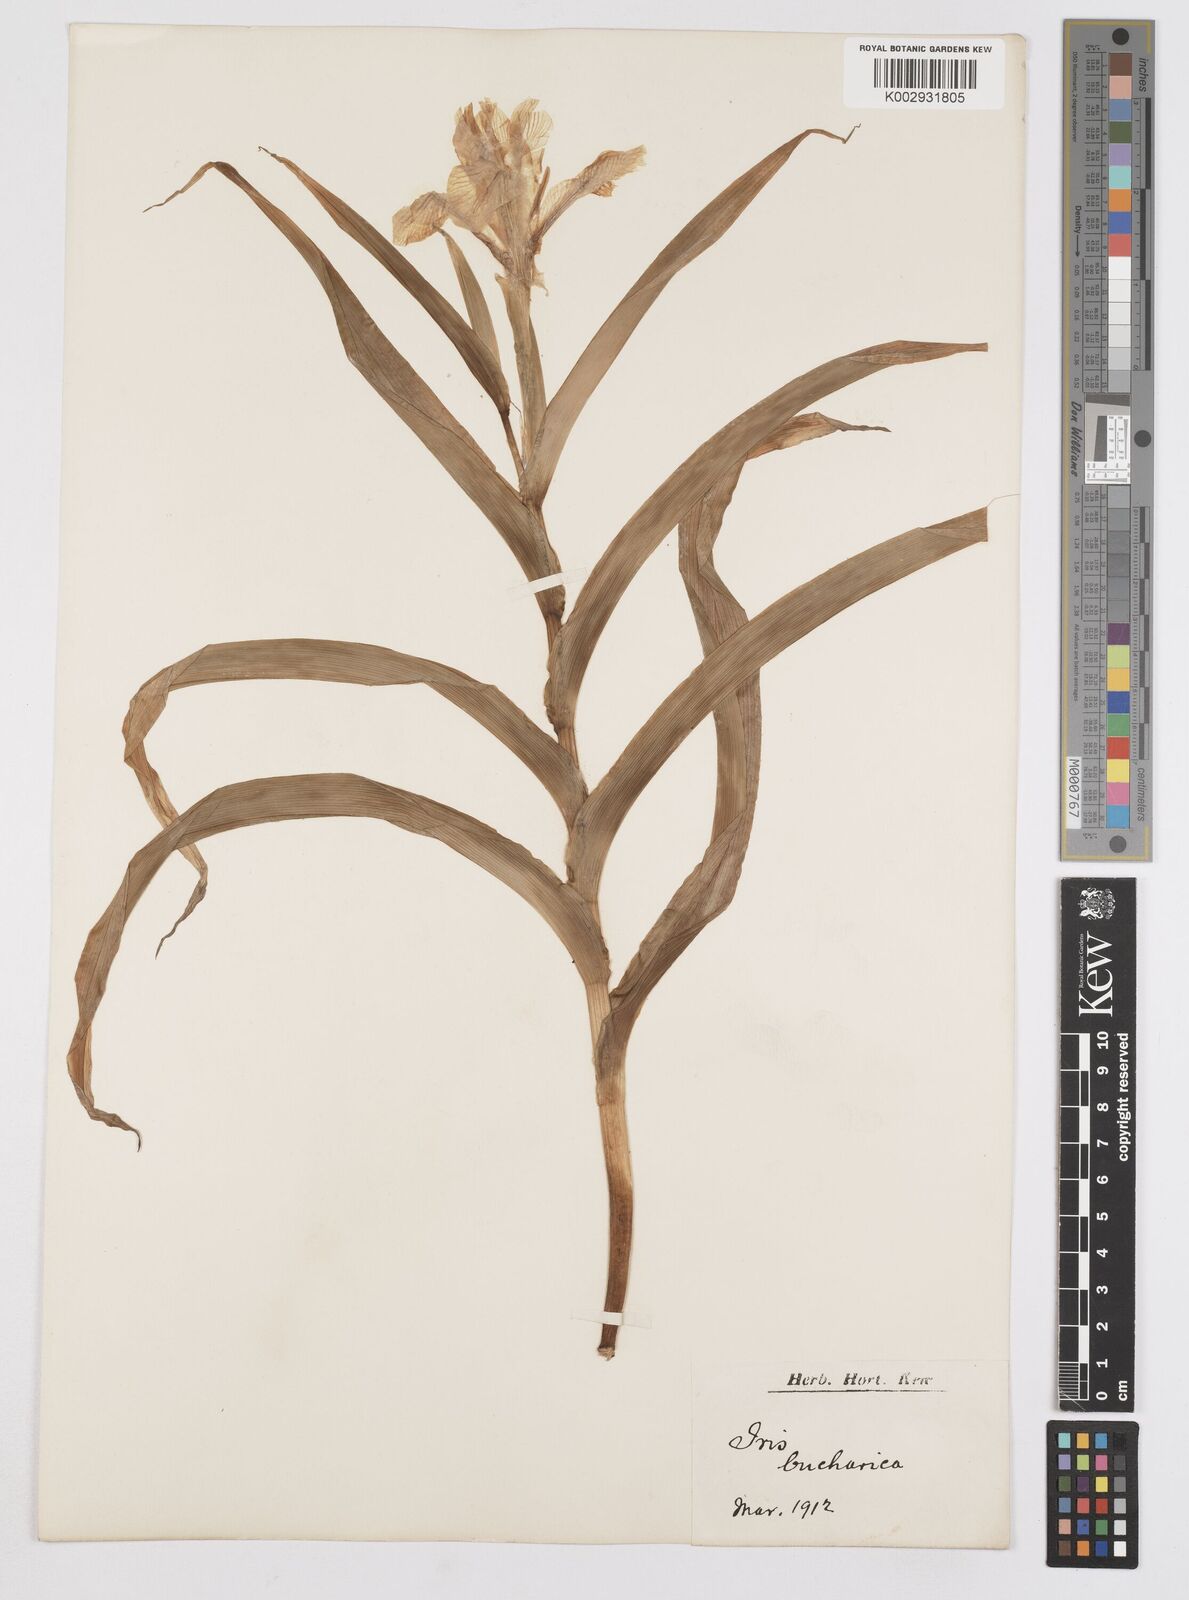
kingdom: Plantae
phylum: Tracheophyta
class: Liliopsida
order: Asparagales
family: Iridaceae
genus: Iris
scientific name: Iris bucharica
